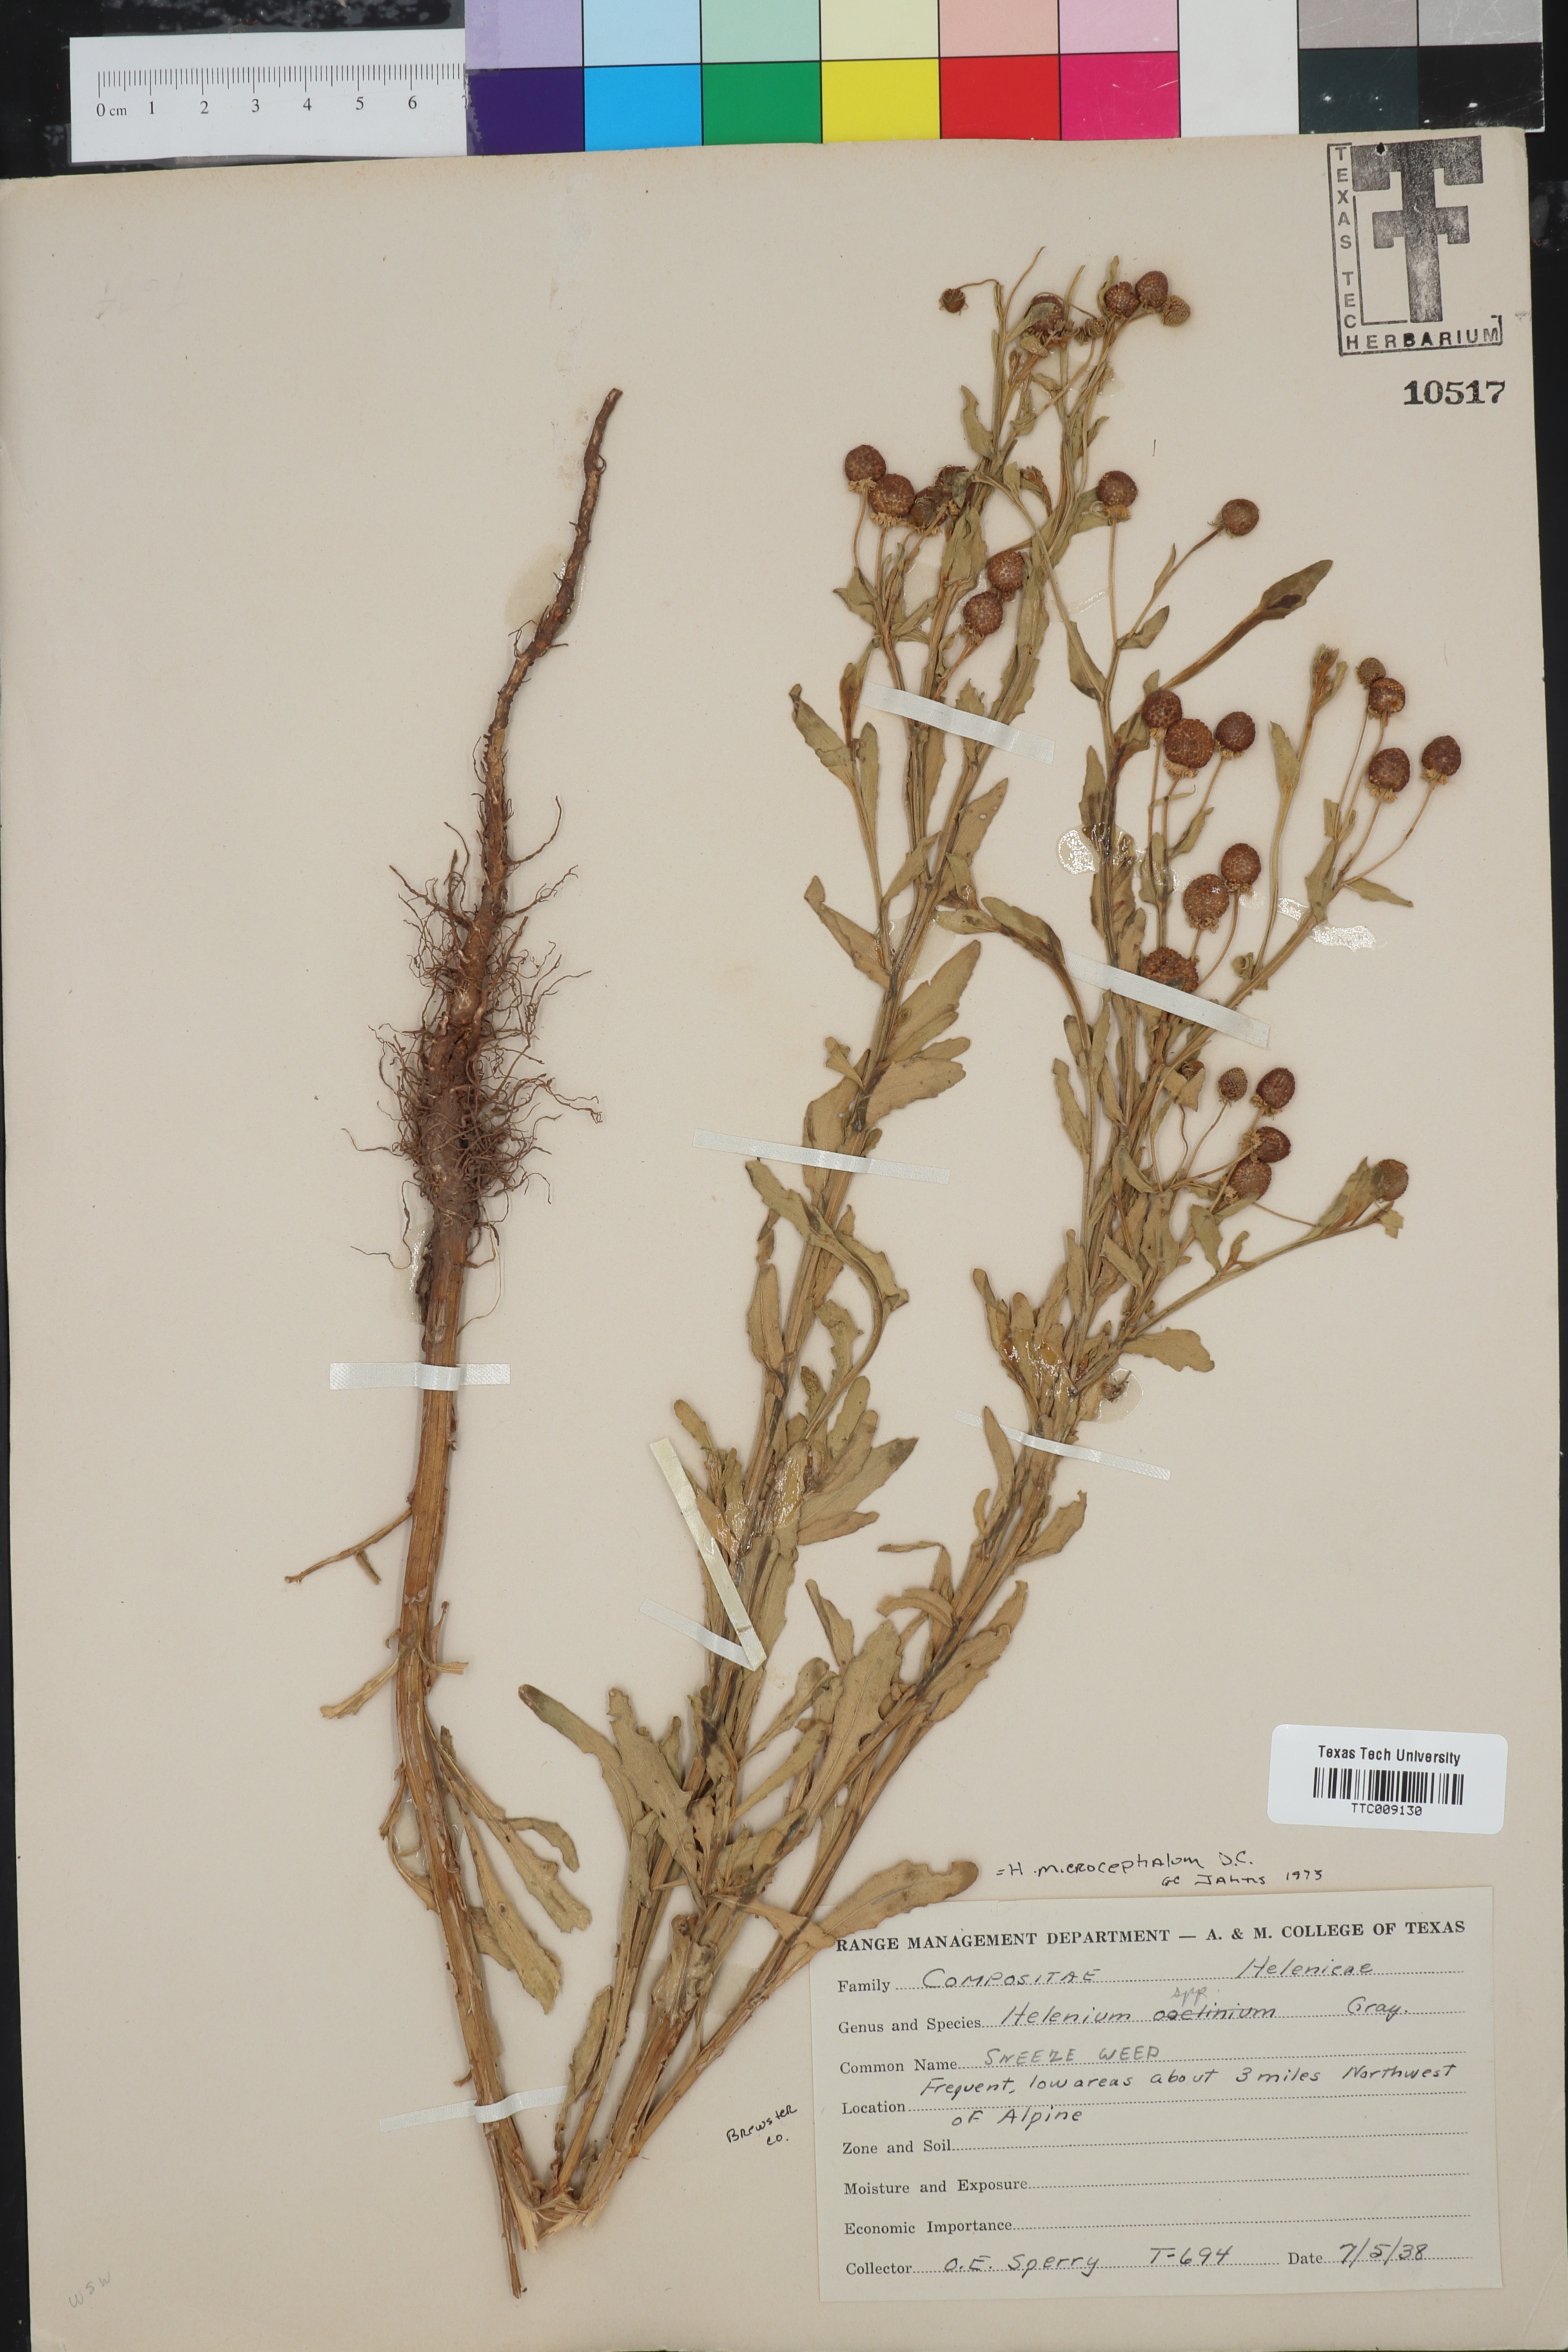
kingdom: Plantae
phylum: Tracheophyta
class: Magnoliopsida
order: Asterales
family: Asteraceae
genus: Helenium
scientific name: Helenium microcephalum
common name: Smallhead sneezeweed
